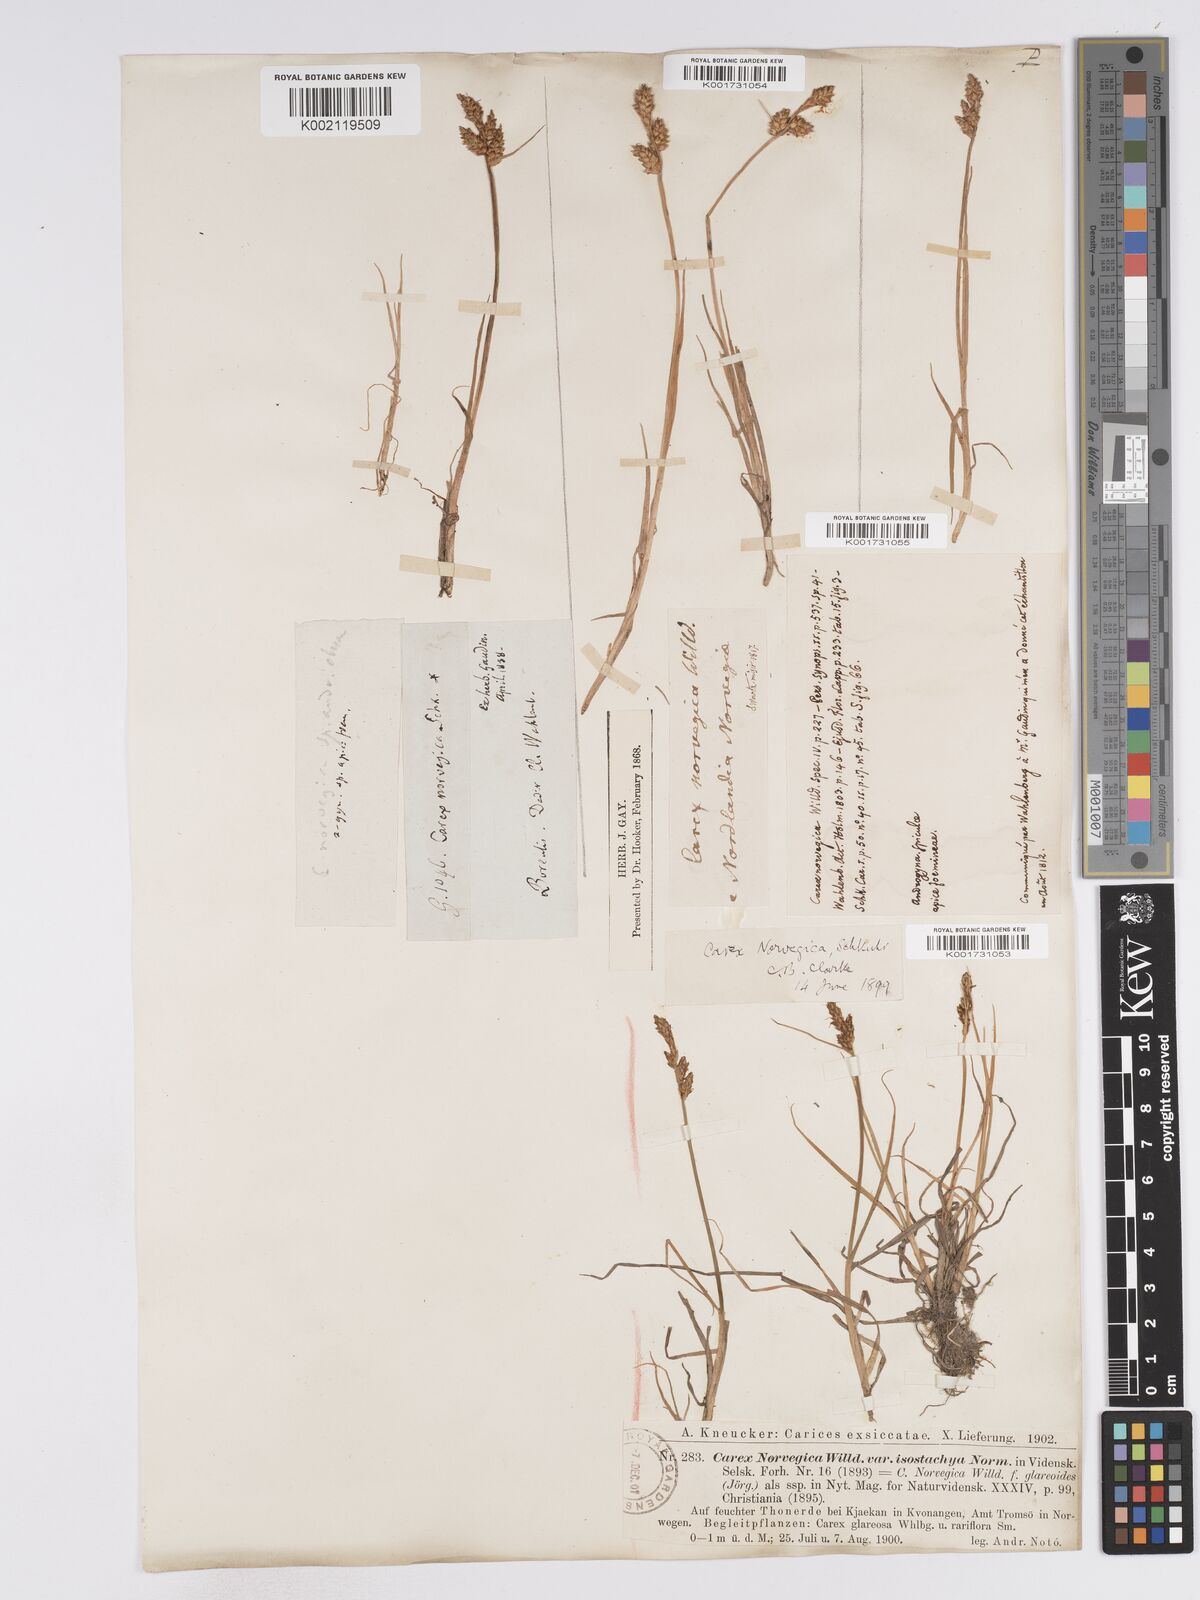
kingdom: Plantae
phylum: Tracheophyta
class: Liliopsida
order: Poales
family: Cyperaceae
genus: Carex
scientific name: Carex mackenziei
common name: Mackenzie's sedge
